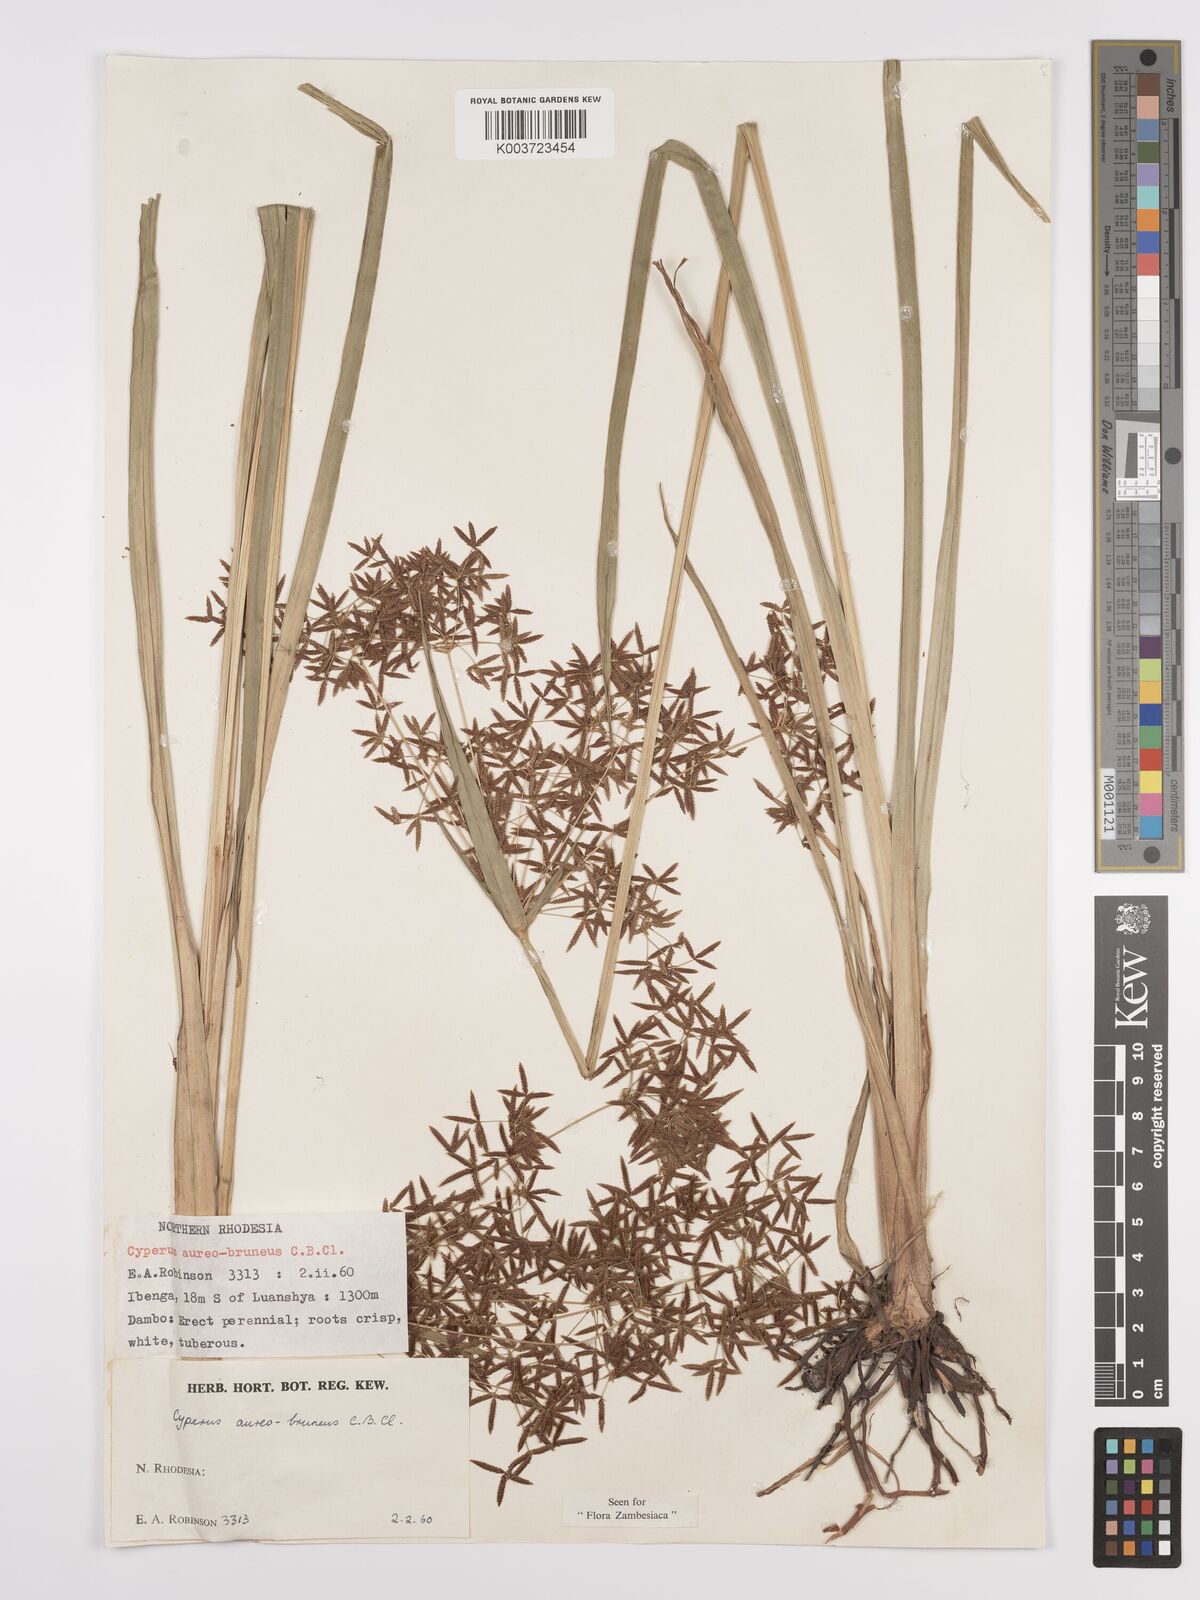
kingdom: Plantae
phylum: Tracheophyta
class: Liliopsida
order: Poales
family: Cyperaceae
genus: Cyperus
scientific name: Cyperus aureobrunneus
